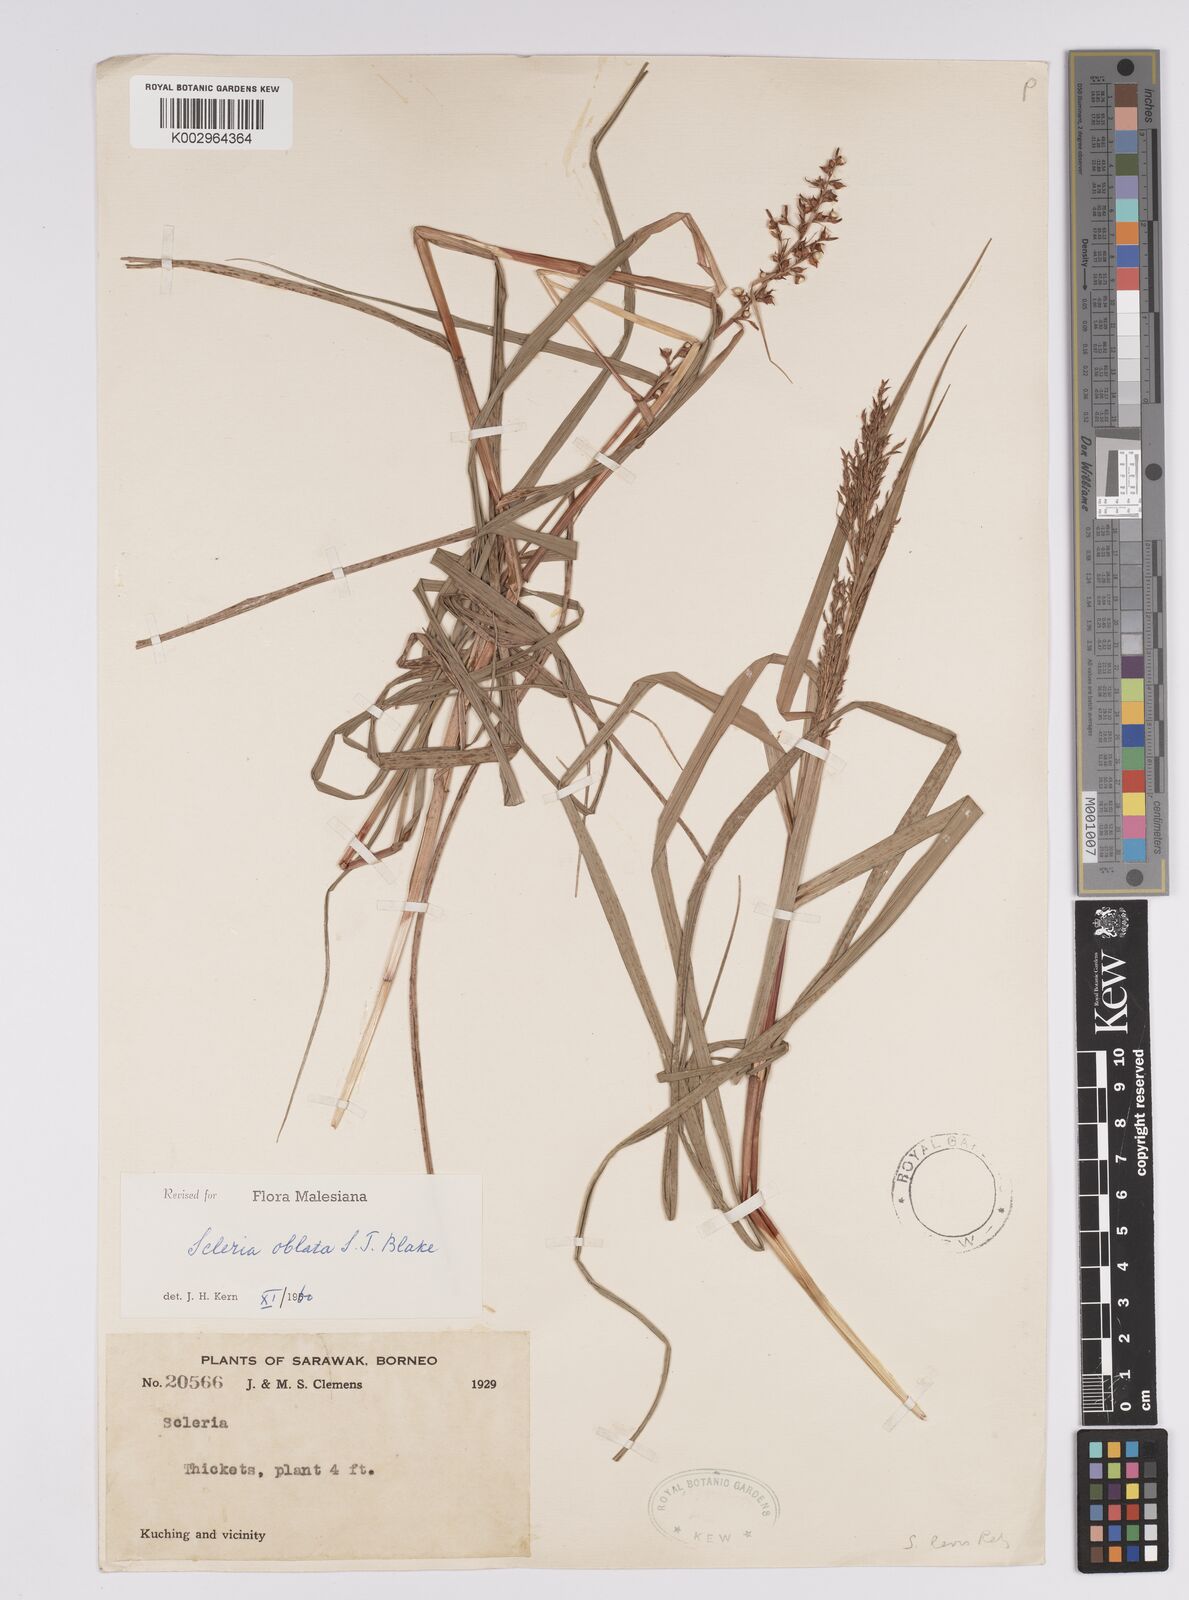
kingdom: Plantae
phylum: Tracheophyta
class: Liliopsida
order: Poales
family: Cyperaceae
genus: Scleria
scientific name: Scleria oblata
